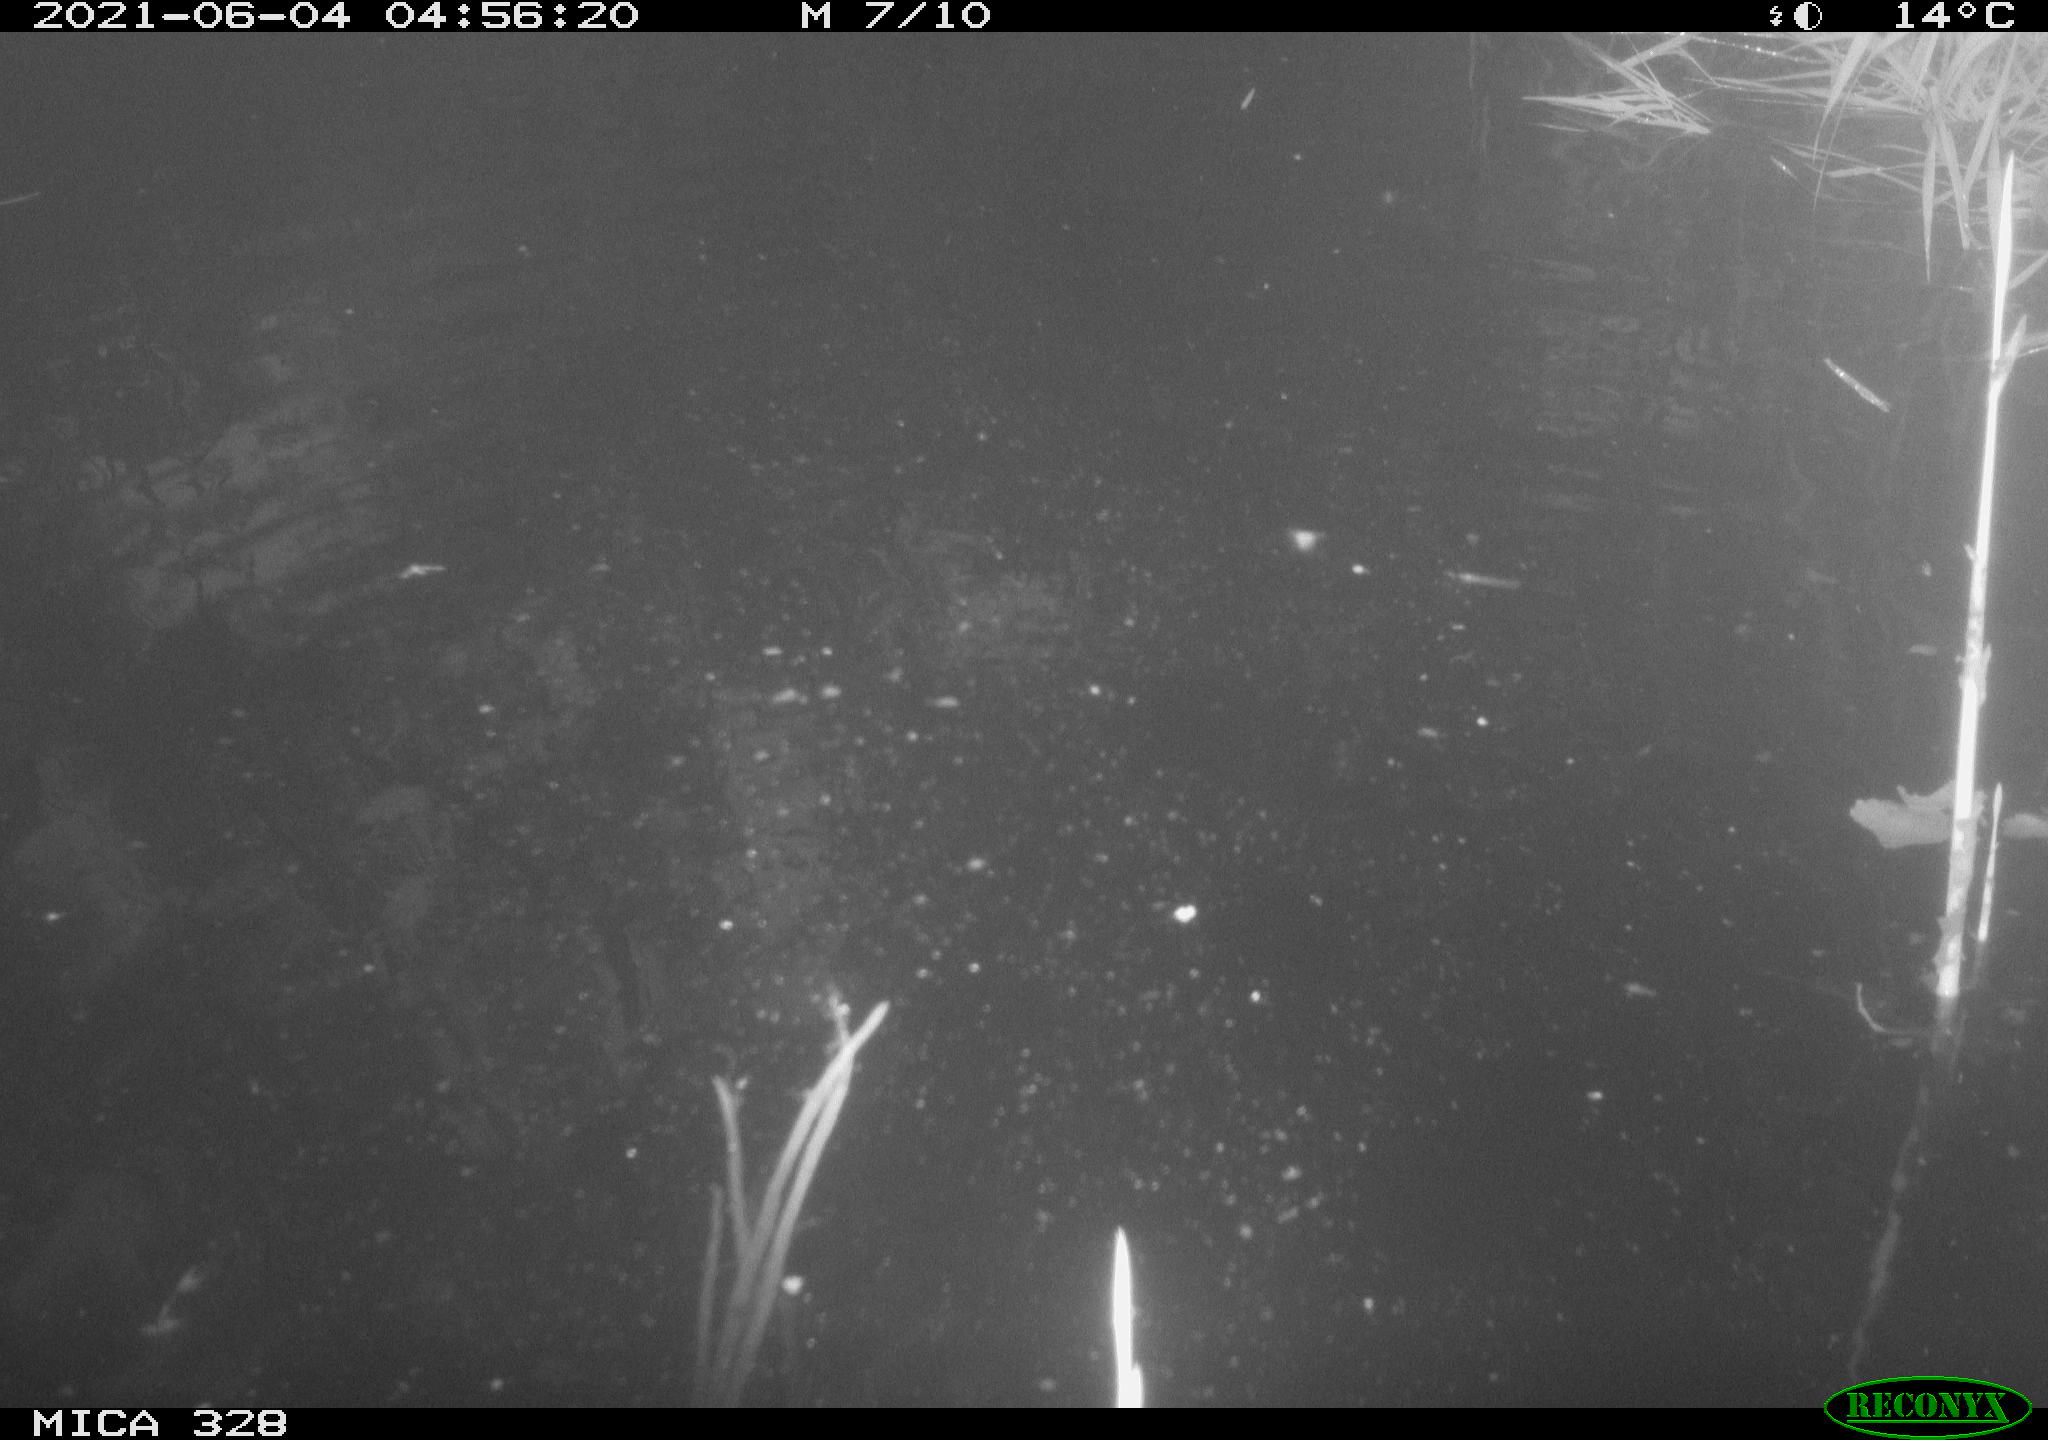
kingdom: Animalia
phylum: Chordata
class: Mammalia
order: Rodentia
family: Cricetidae
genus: Ondatra
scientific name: Ondatra zibethicus
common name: Muskrat
